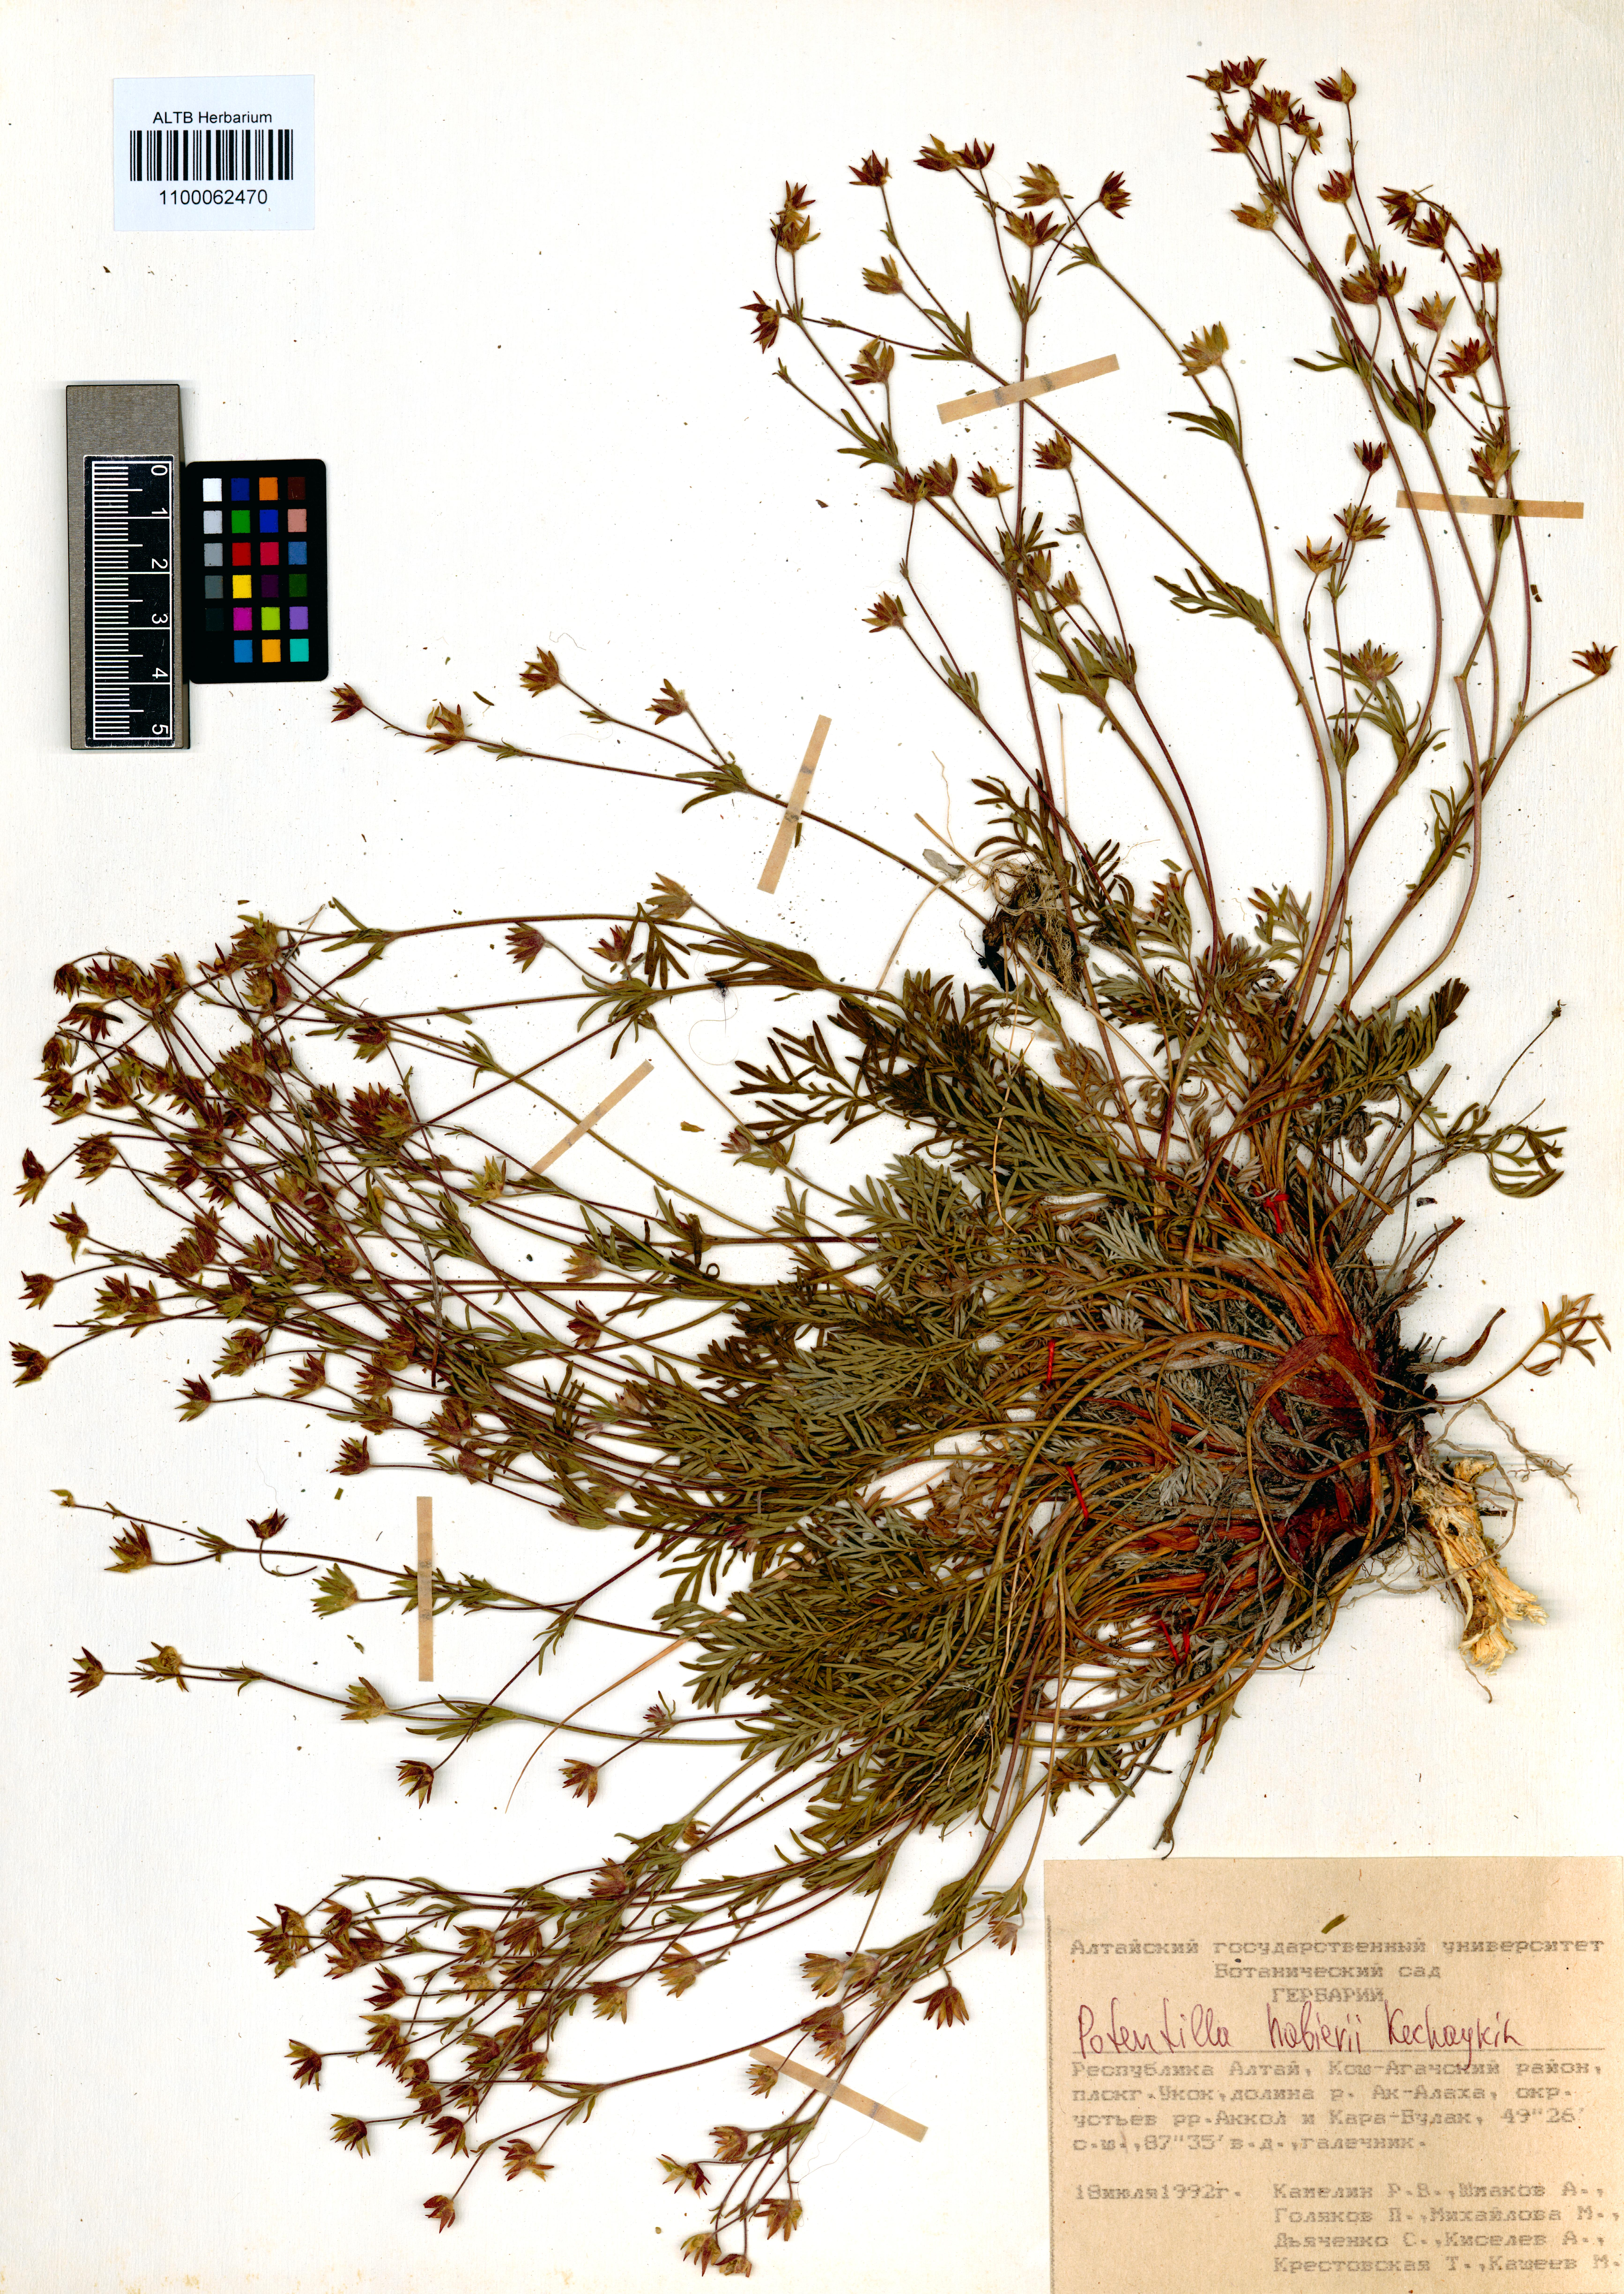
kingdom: Plantae
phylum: Tracheophyta
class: Magnoliopsida
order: Rosales
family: Rosaceae
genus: Potentilla
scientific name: Potentilla habievii
